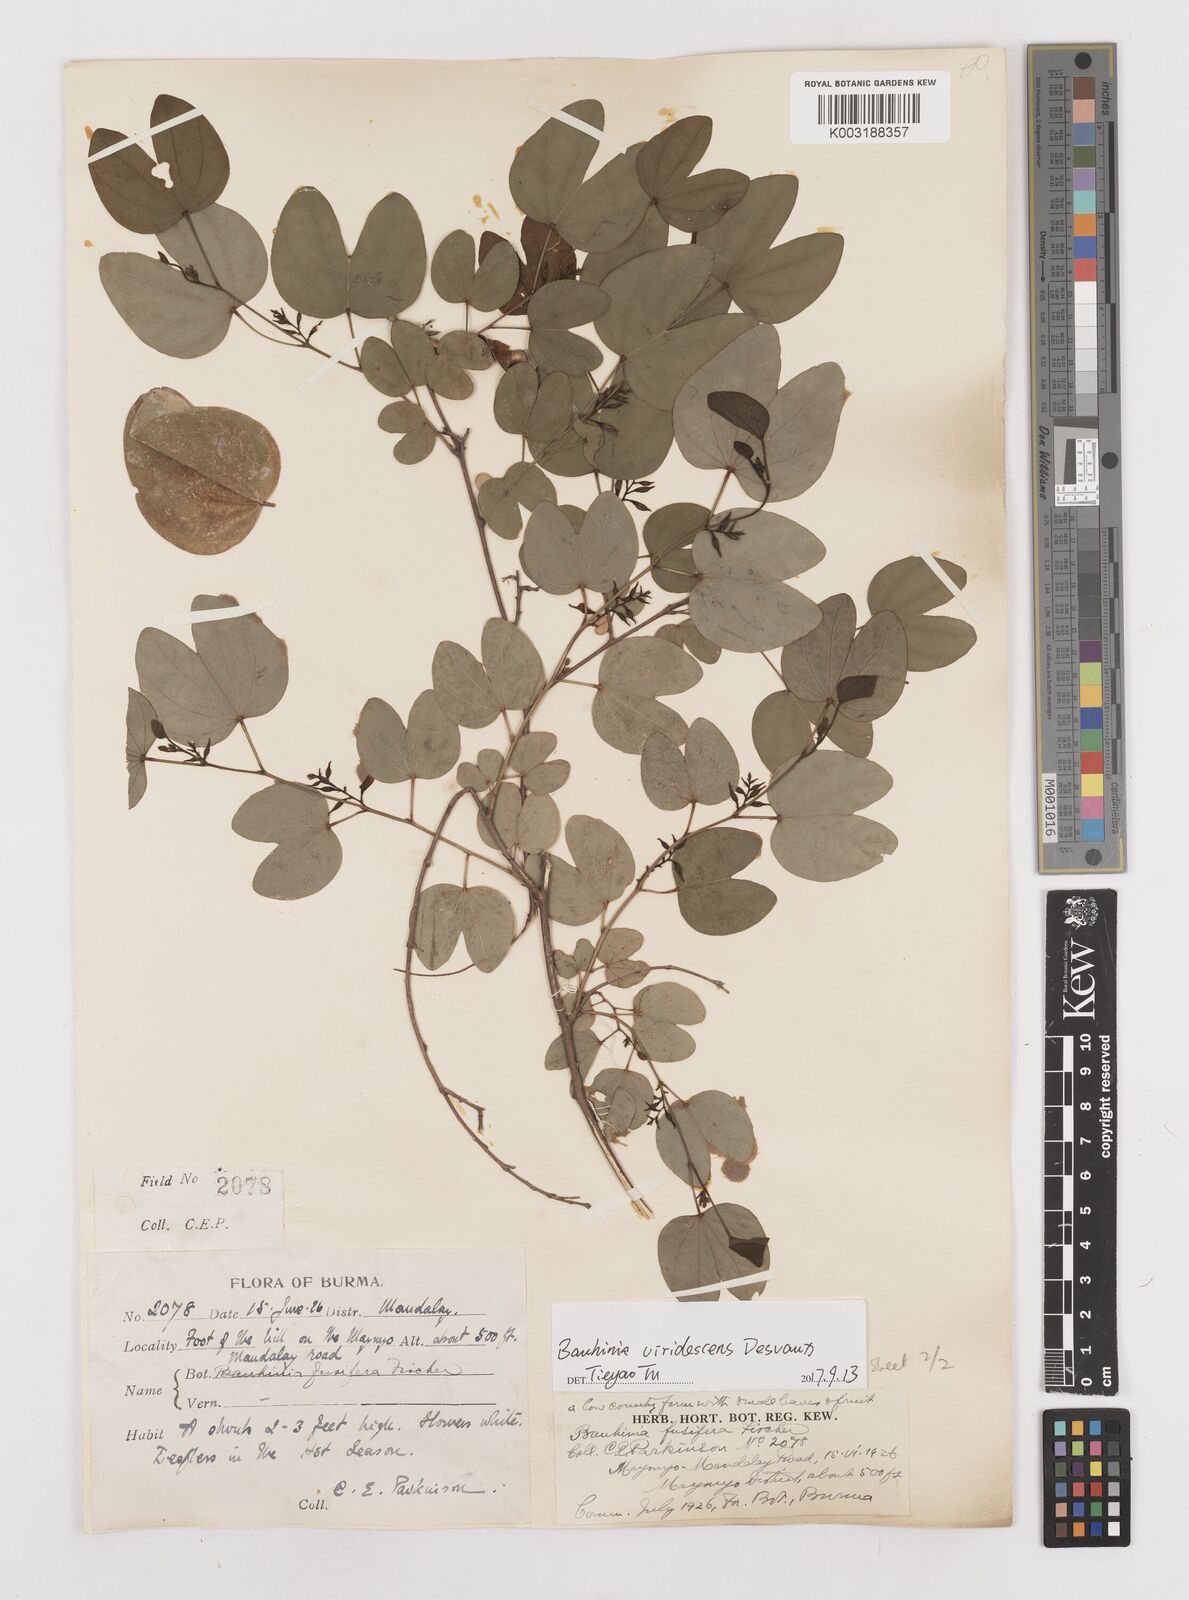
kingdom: Plantae
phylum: Tracheophyta
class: Magnoliopsida
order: Fabales
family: Fabaceae
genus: Bauhinia
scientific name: Bauhinia viridescens
